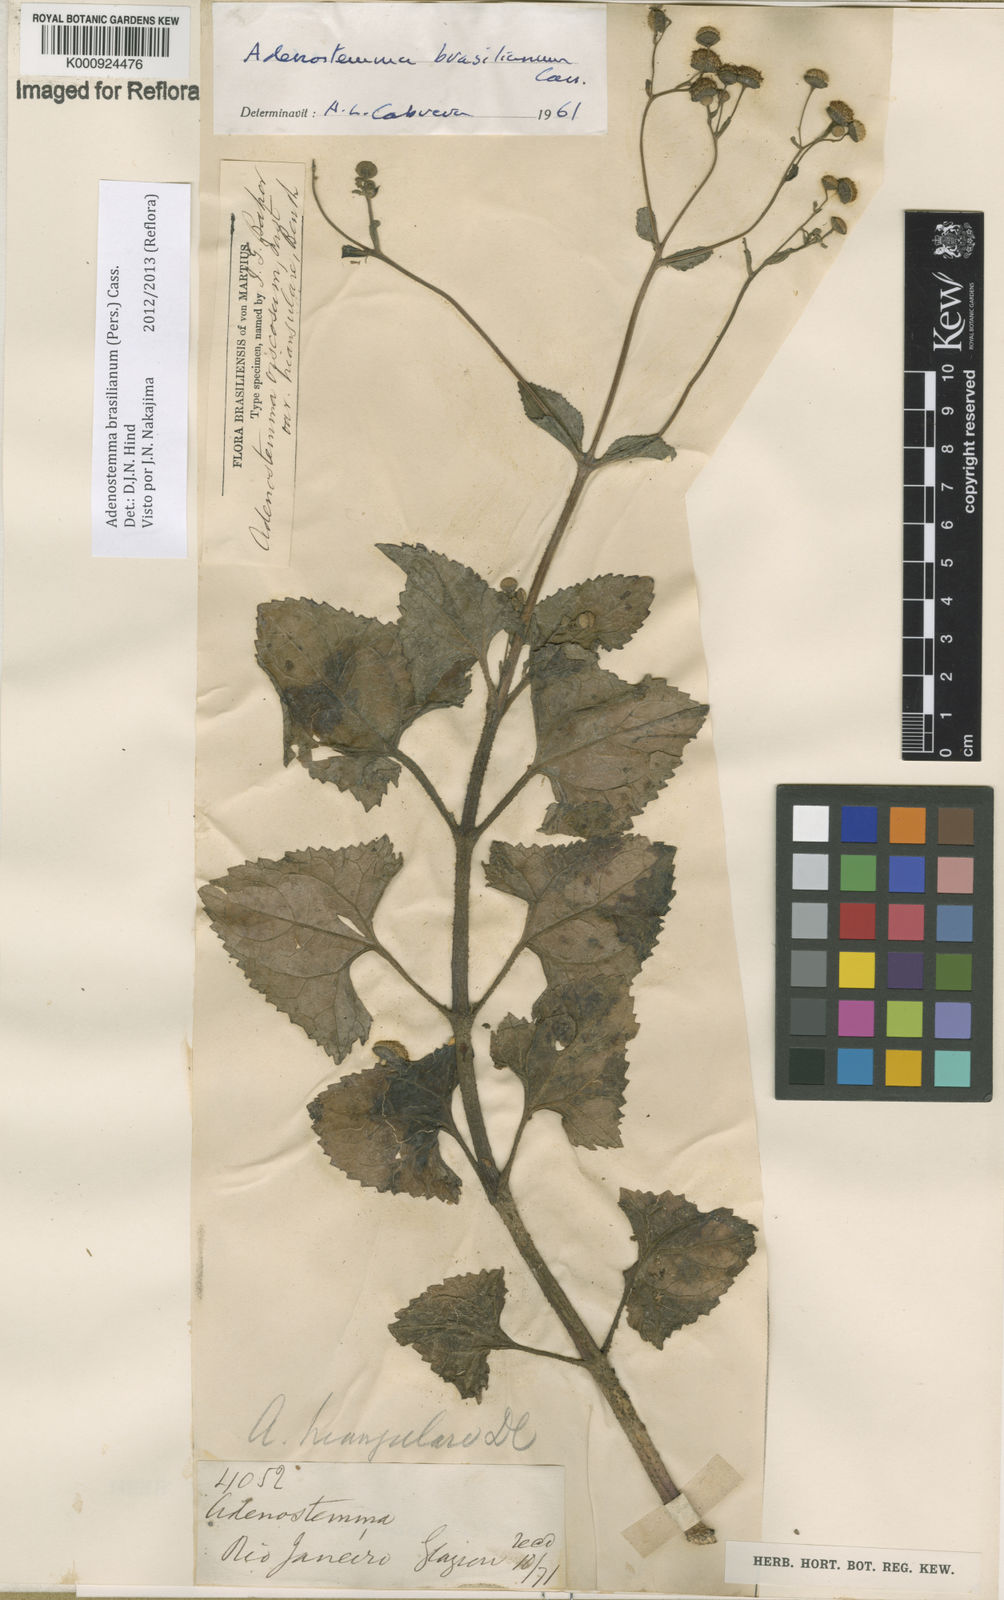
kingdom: Plantae
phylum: Tracheophyta
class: Magnoliopsida
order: Asterales
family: Asteraceae
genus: Adenostemma
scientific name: Adenostemma brasilianum
